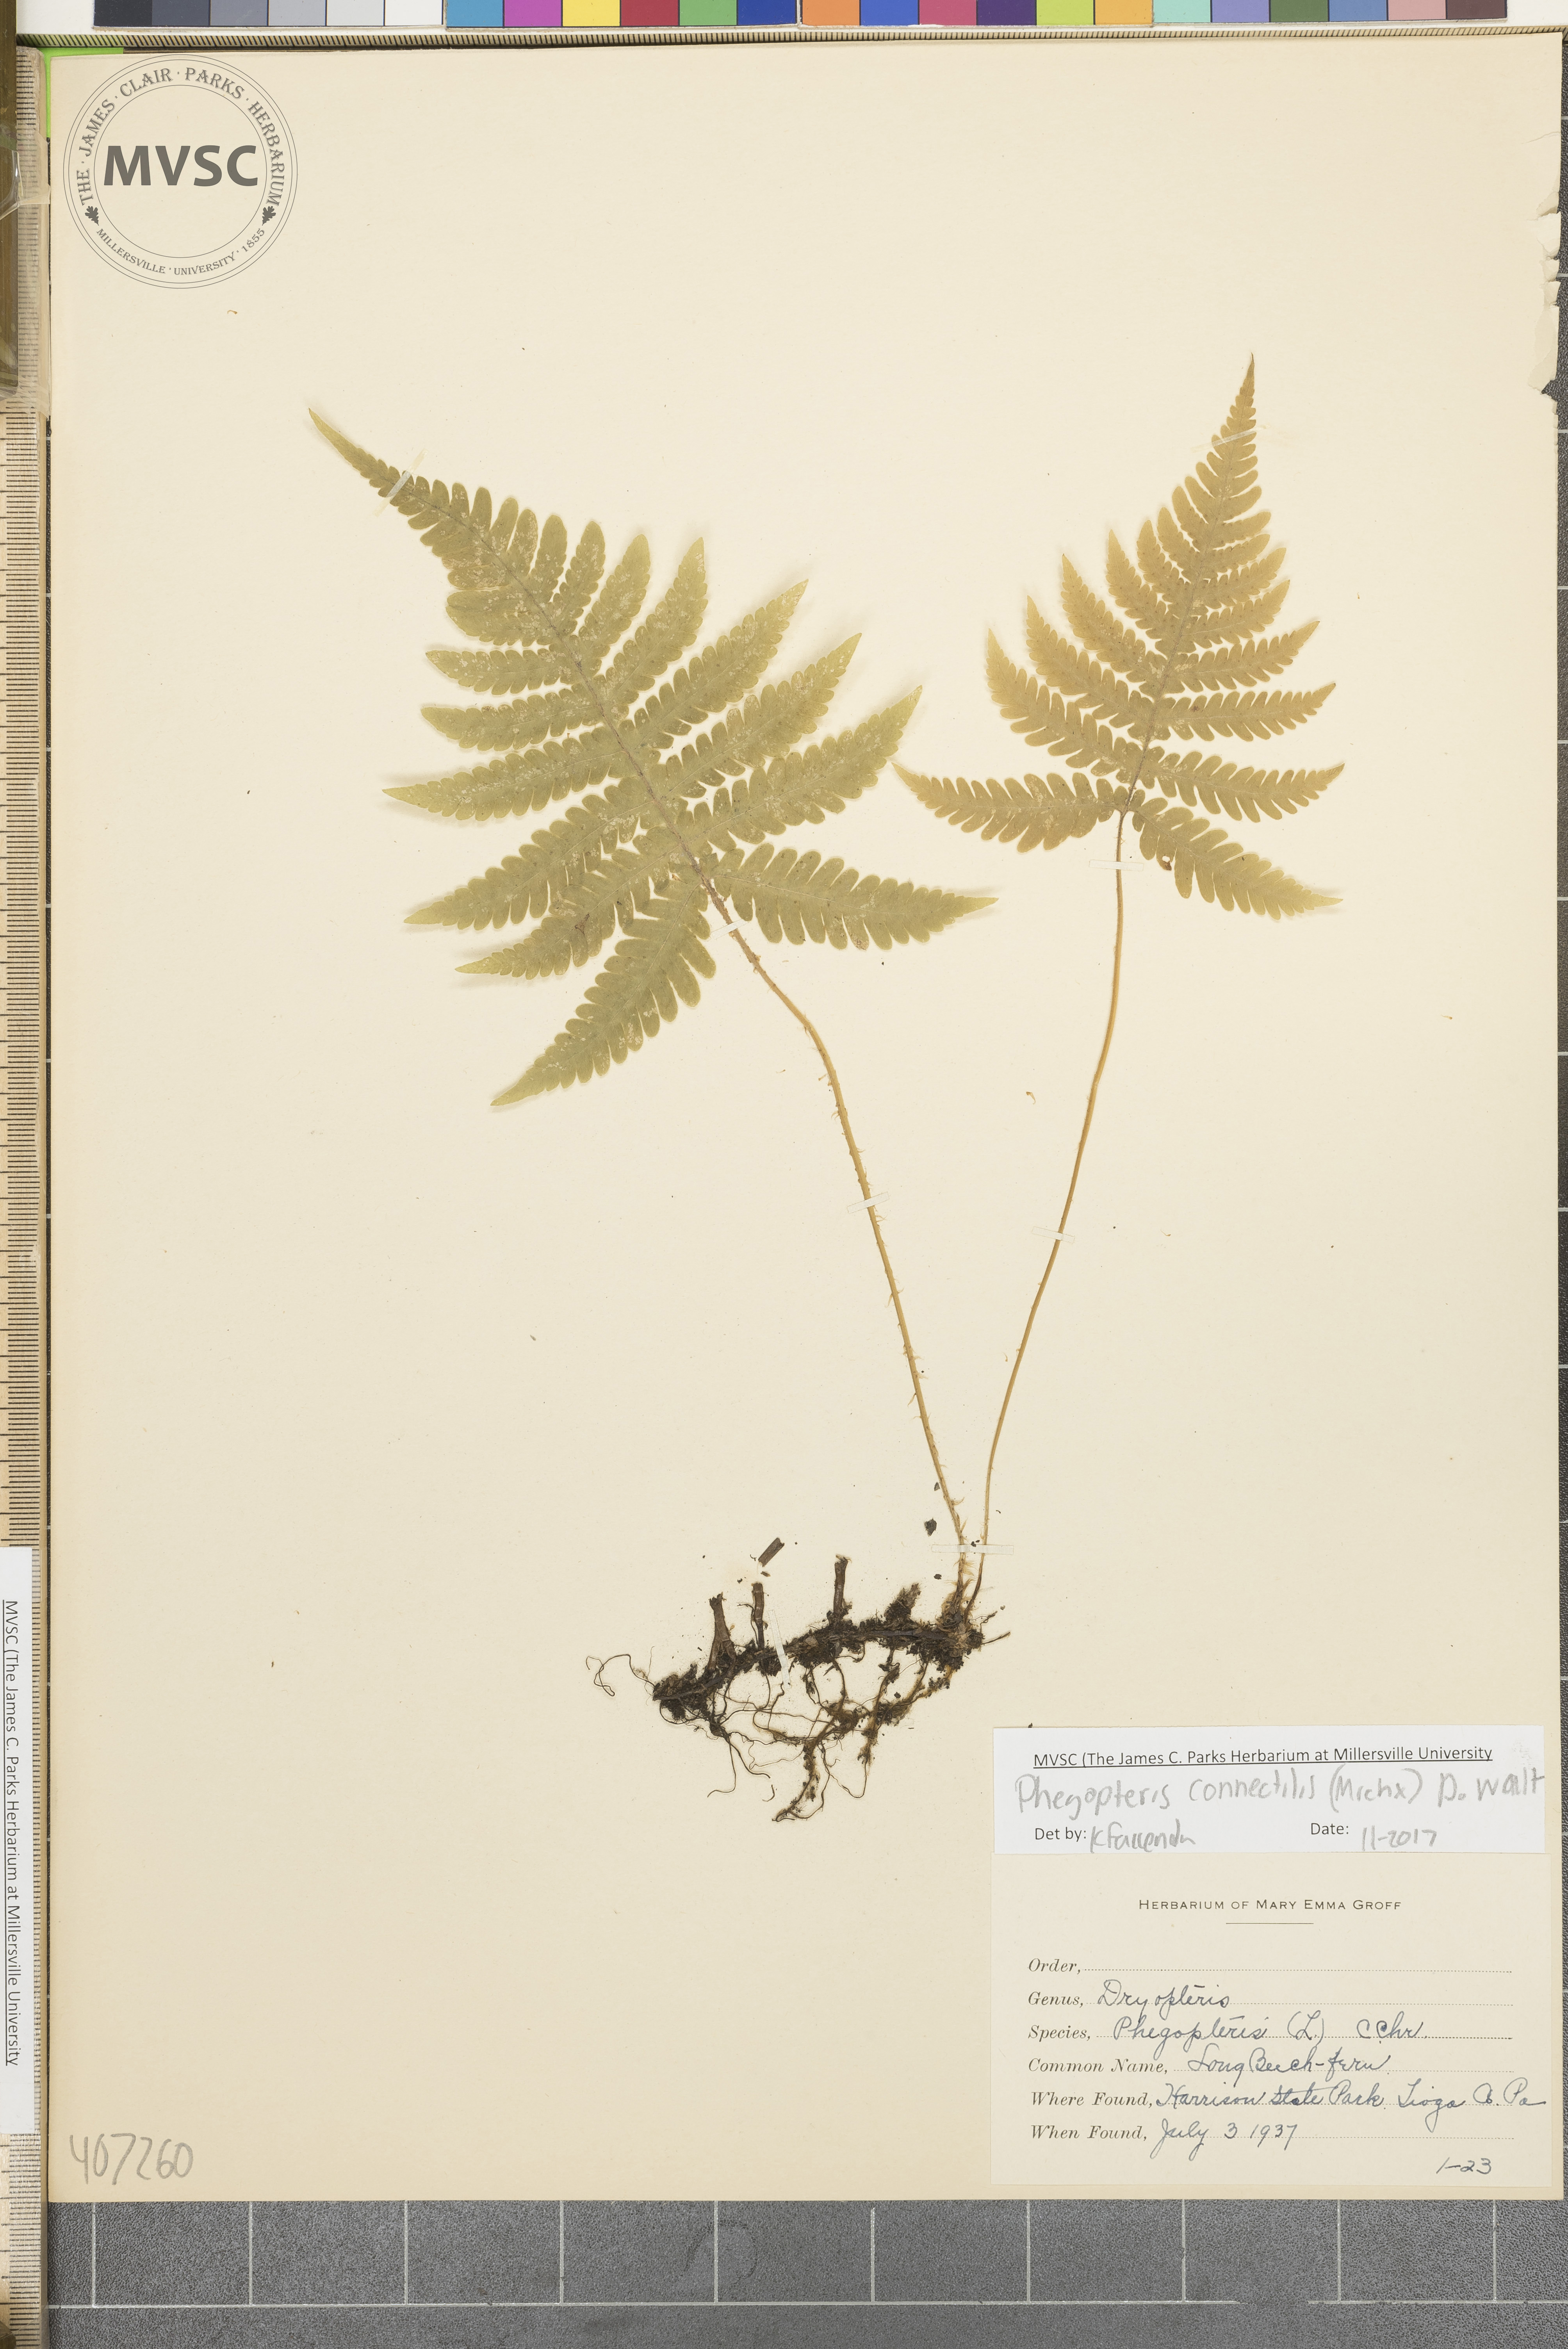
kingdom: Plantae
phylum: Tracheophyta
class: Polypodiopsida
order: Polypodiales
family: Thelypteridaceae
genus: Phegopteris
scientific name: Phegopteris connectilis
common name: Beech fern
